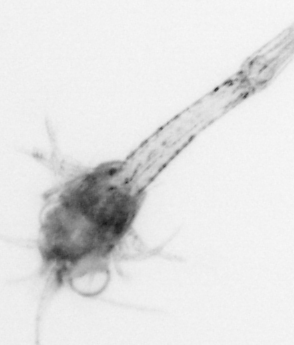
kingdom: Animalia
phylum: Arthropoda
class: Malacostraca
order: Decapoda
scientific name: Decapoda
